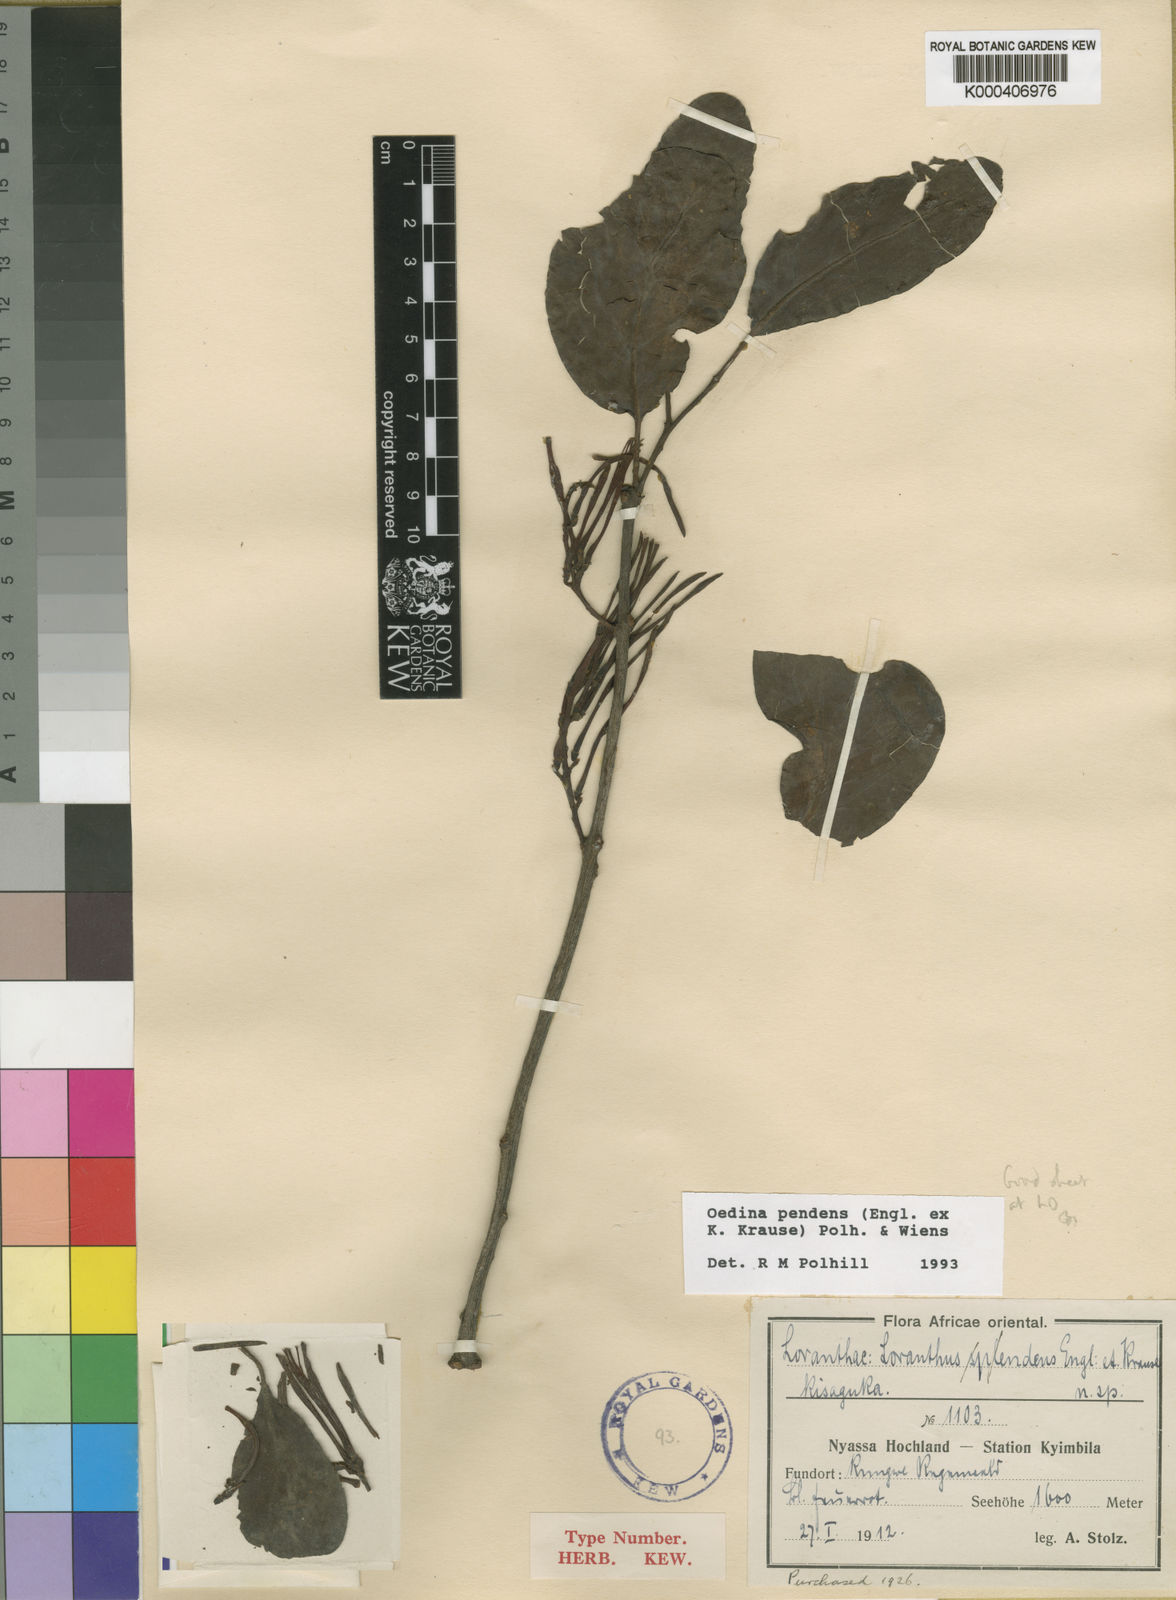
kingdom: Plantae
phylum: Tracheophyta
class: Magnoliopsida
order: Santalales
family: Loranthaceae
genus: Oedina
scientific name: Oedina pendens
